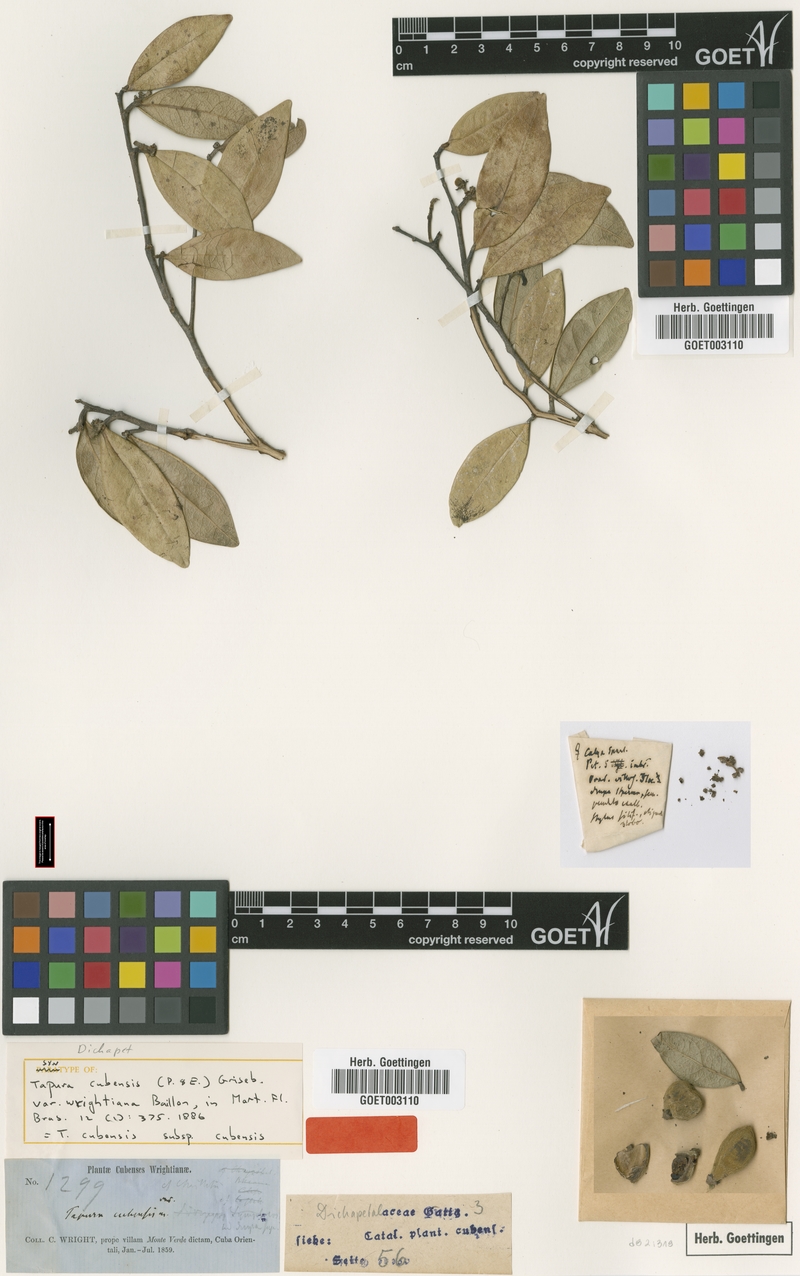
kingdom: Plantae
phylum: Tracheophyta
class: Magnoliopsida
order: Malpighiales
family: Dichapetalaceae
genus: Tapura
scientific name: Tapura cubensis
